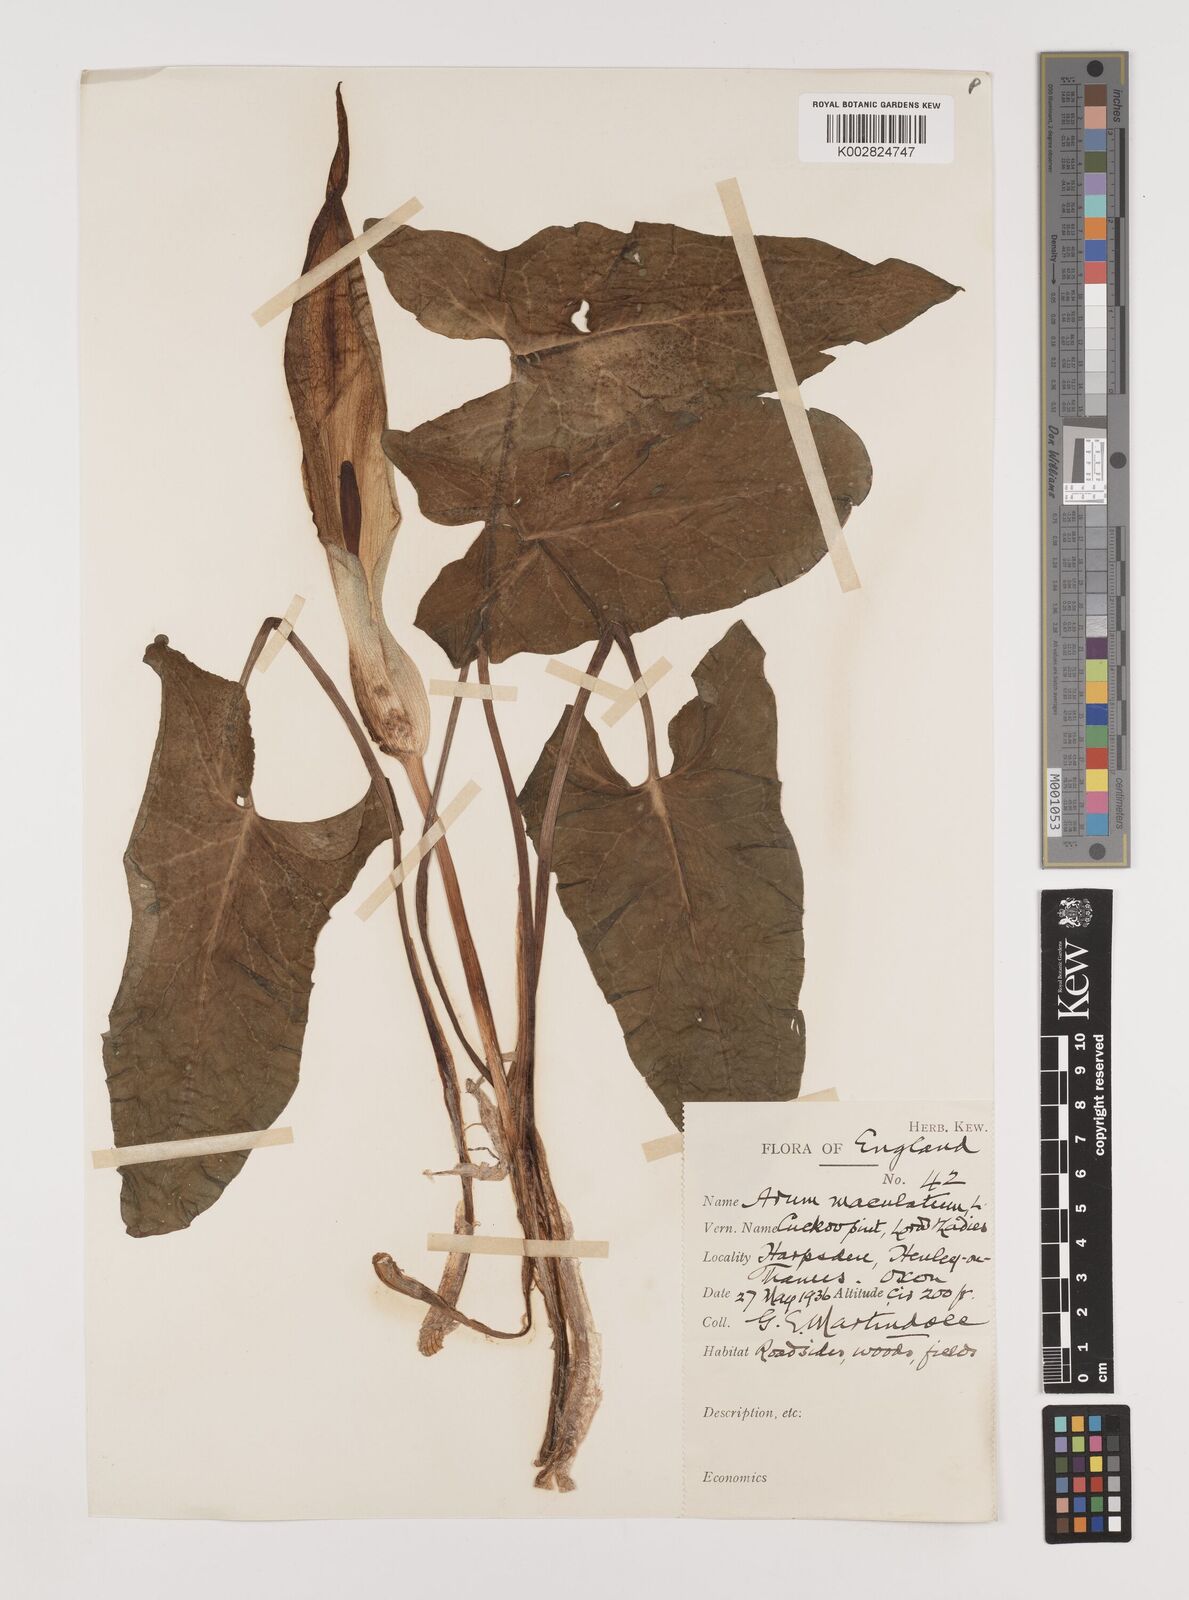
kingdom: Plantae
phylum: Tracheophyta
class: Liliopsida
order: Alismatales
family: Araceae
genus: Arum
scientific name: Arum maculatum
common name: Lords-and-ladies
